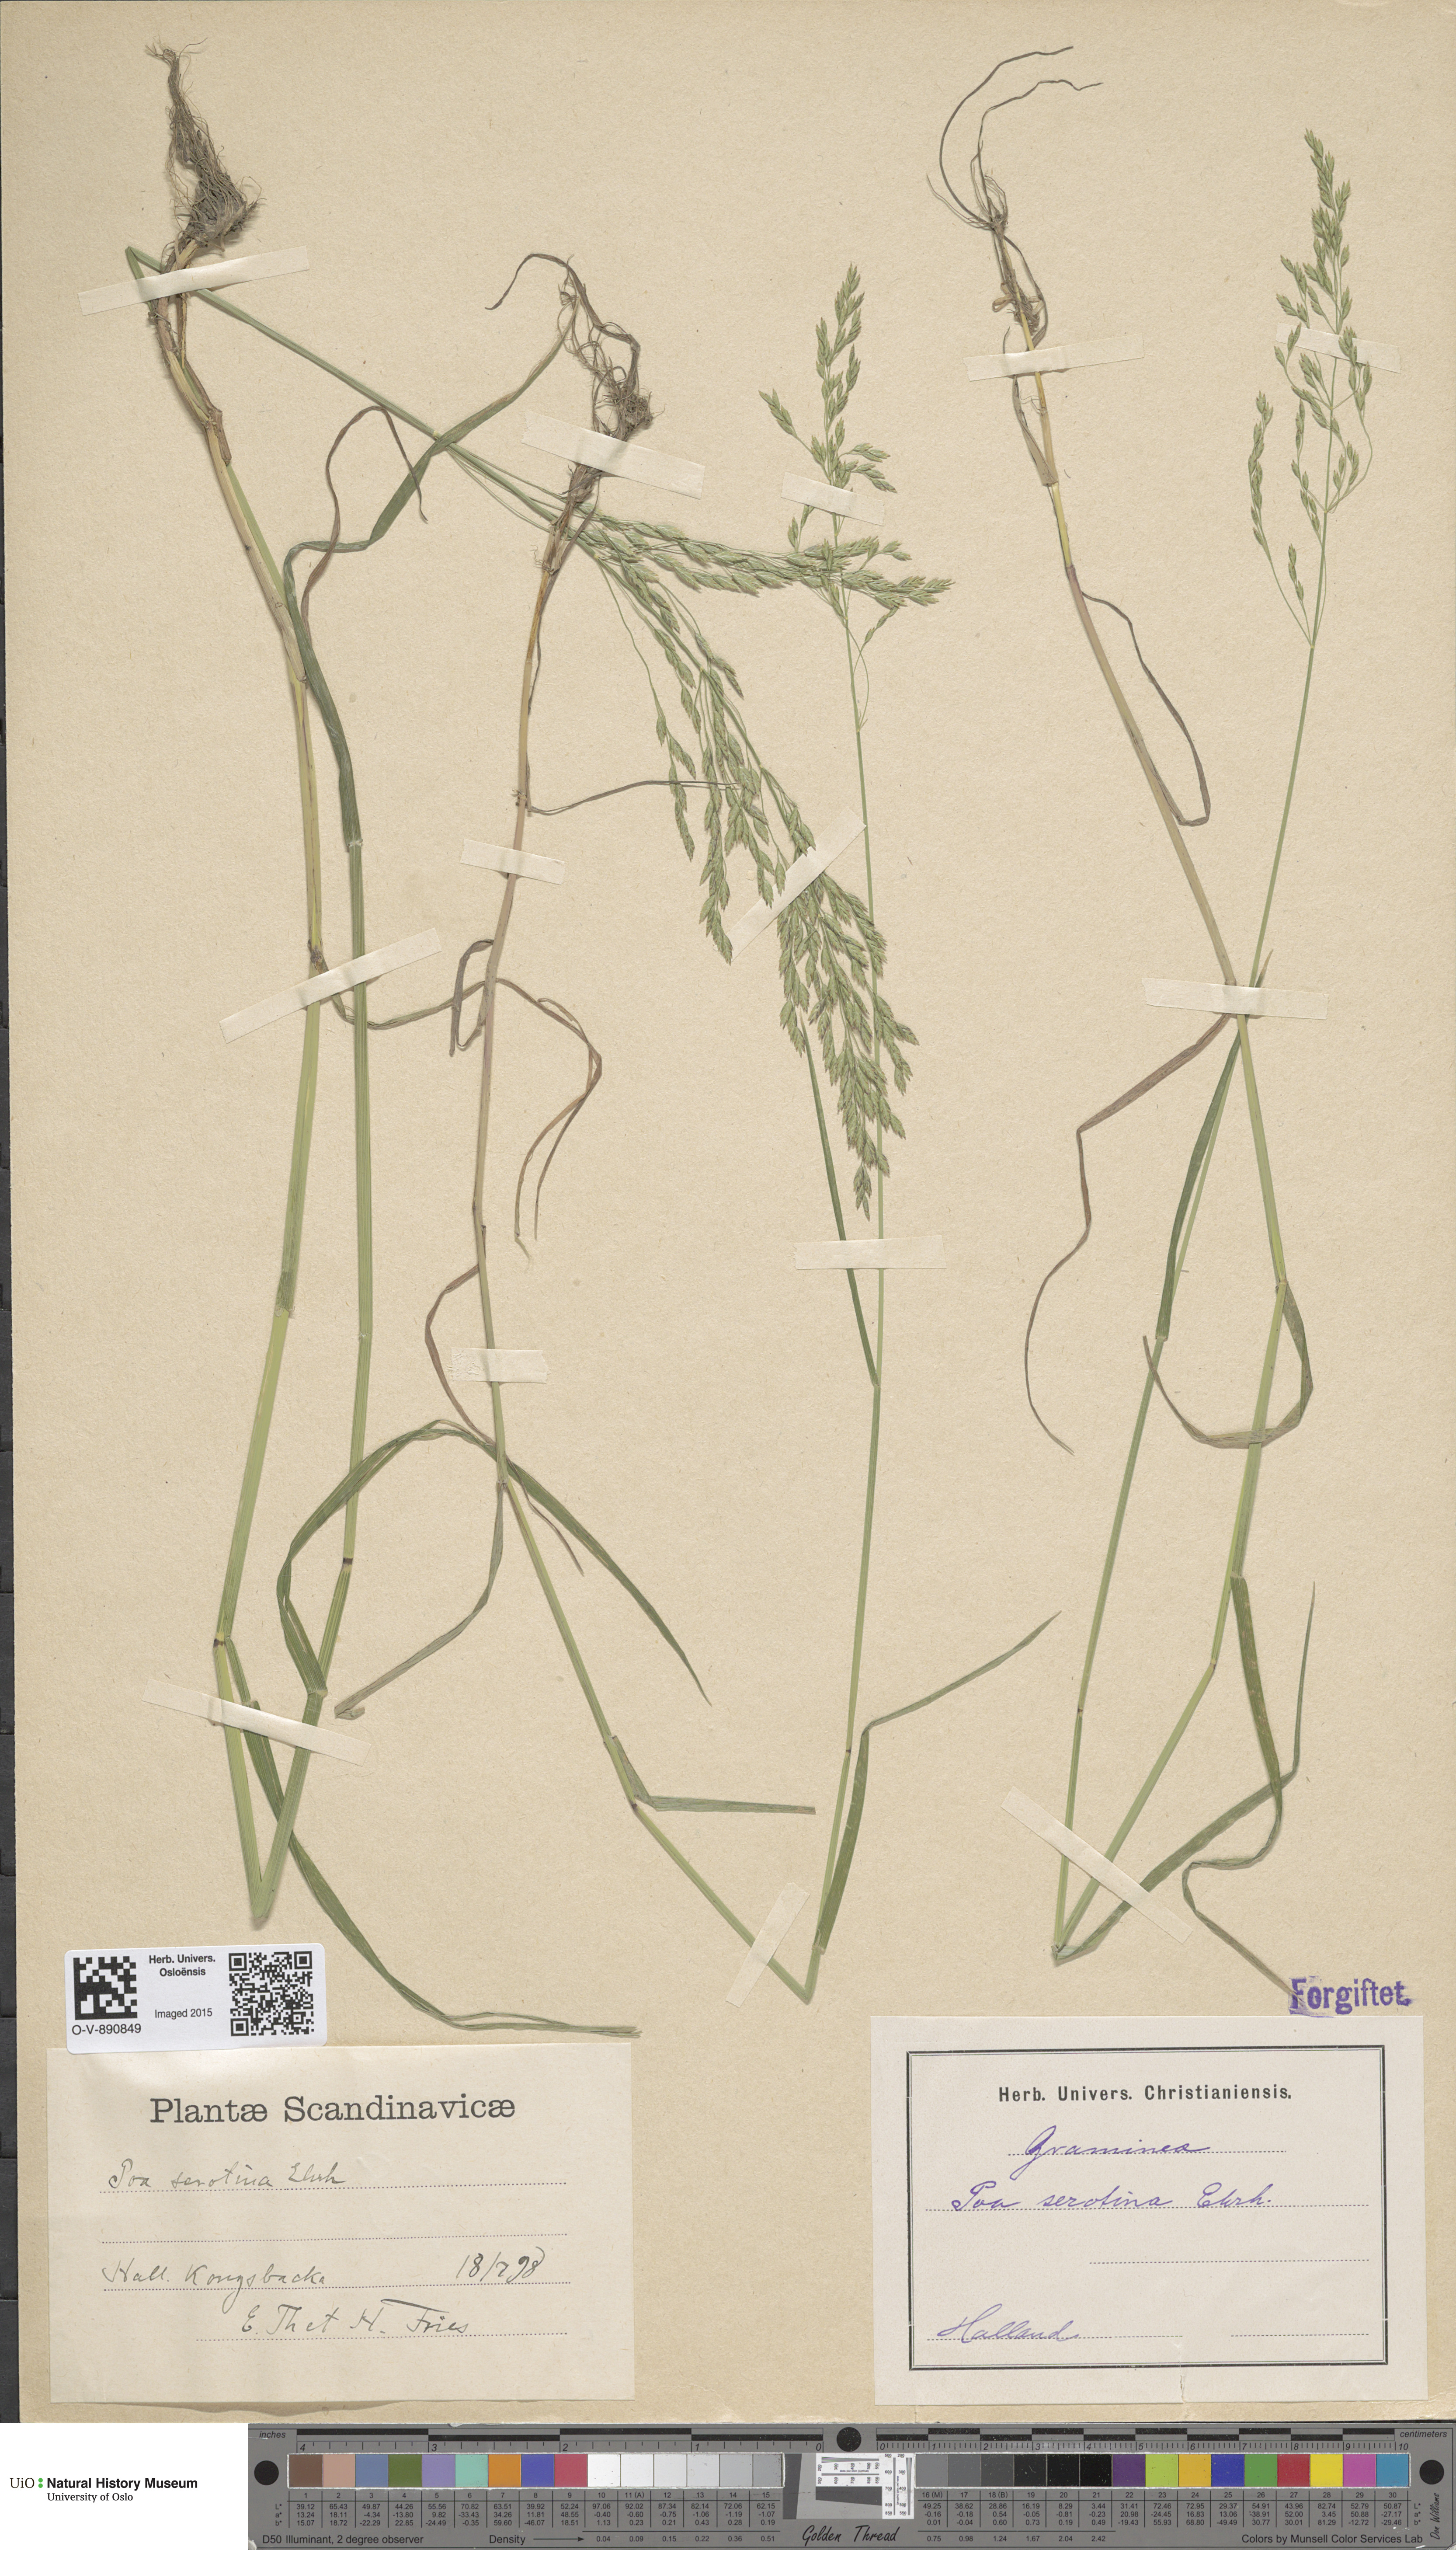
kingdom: Plantae
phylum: Tracheophyta
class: Liliopsida
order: Poales
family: Poaceae
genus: Poa
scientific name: Poa palustris
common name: Swamp meadow-grass
